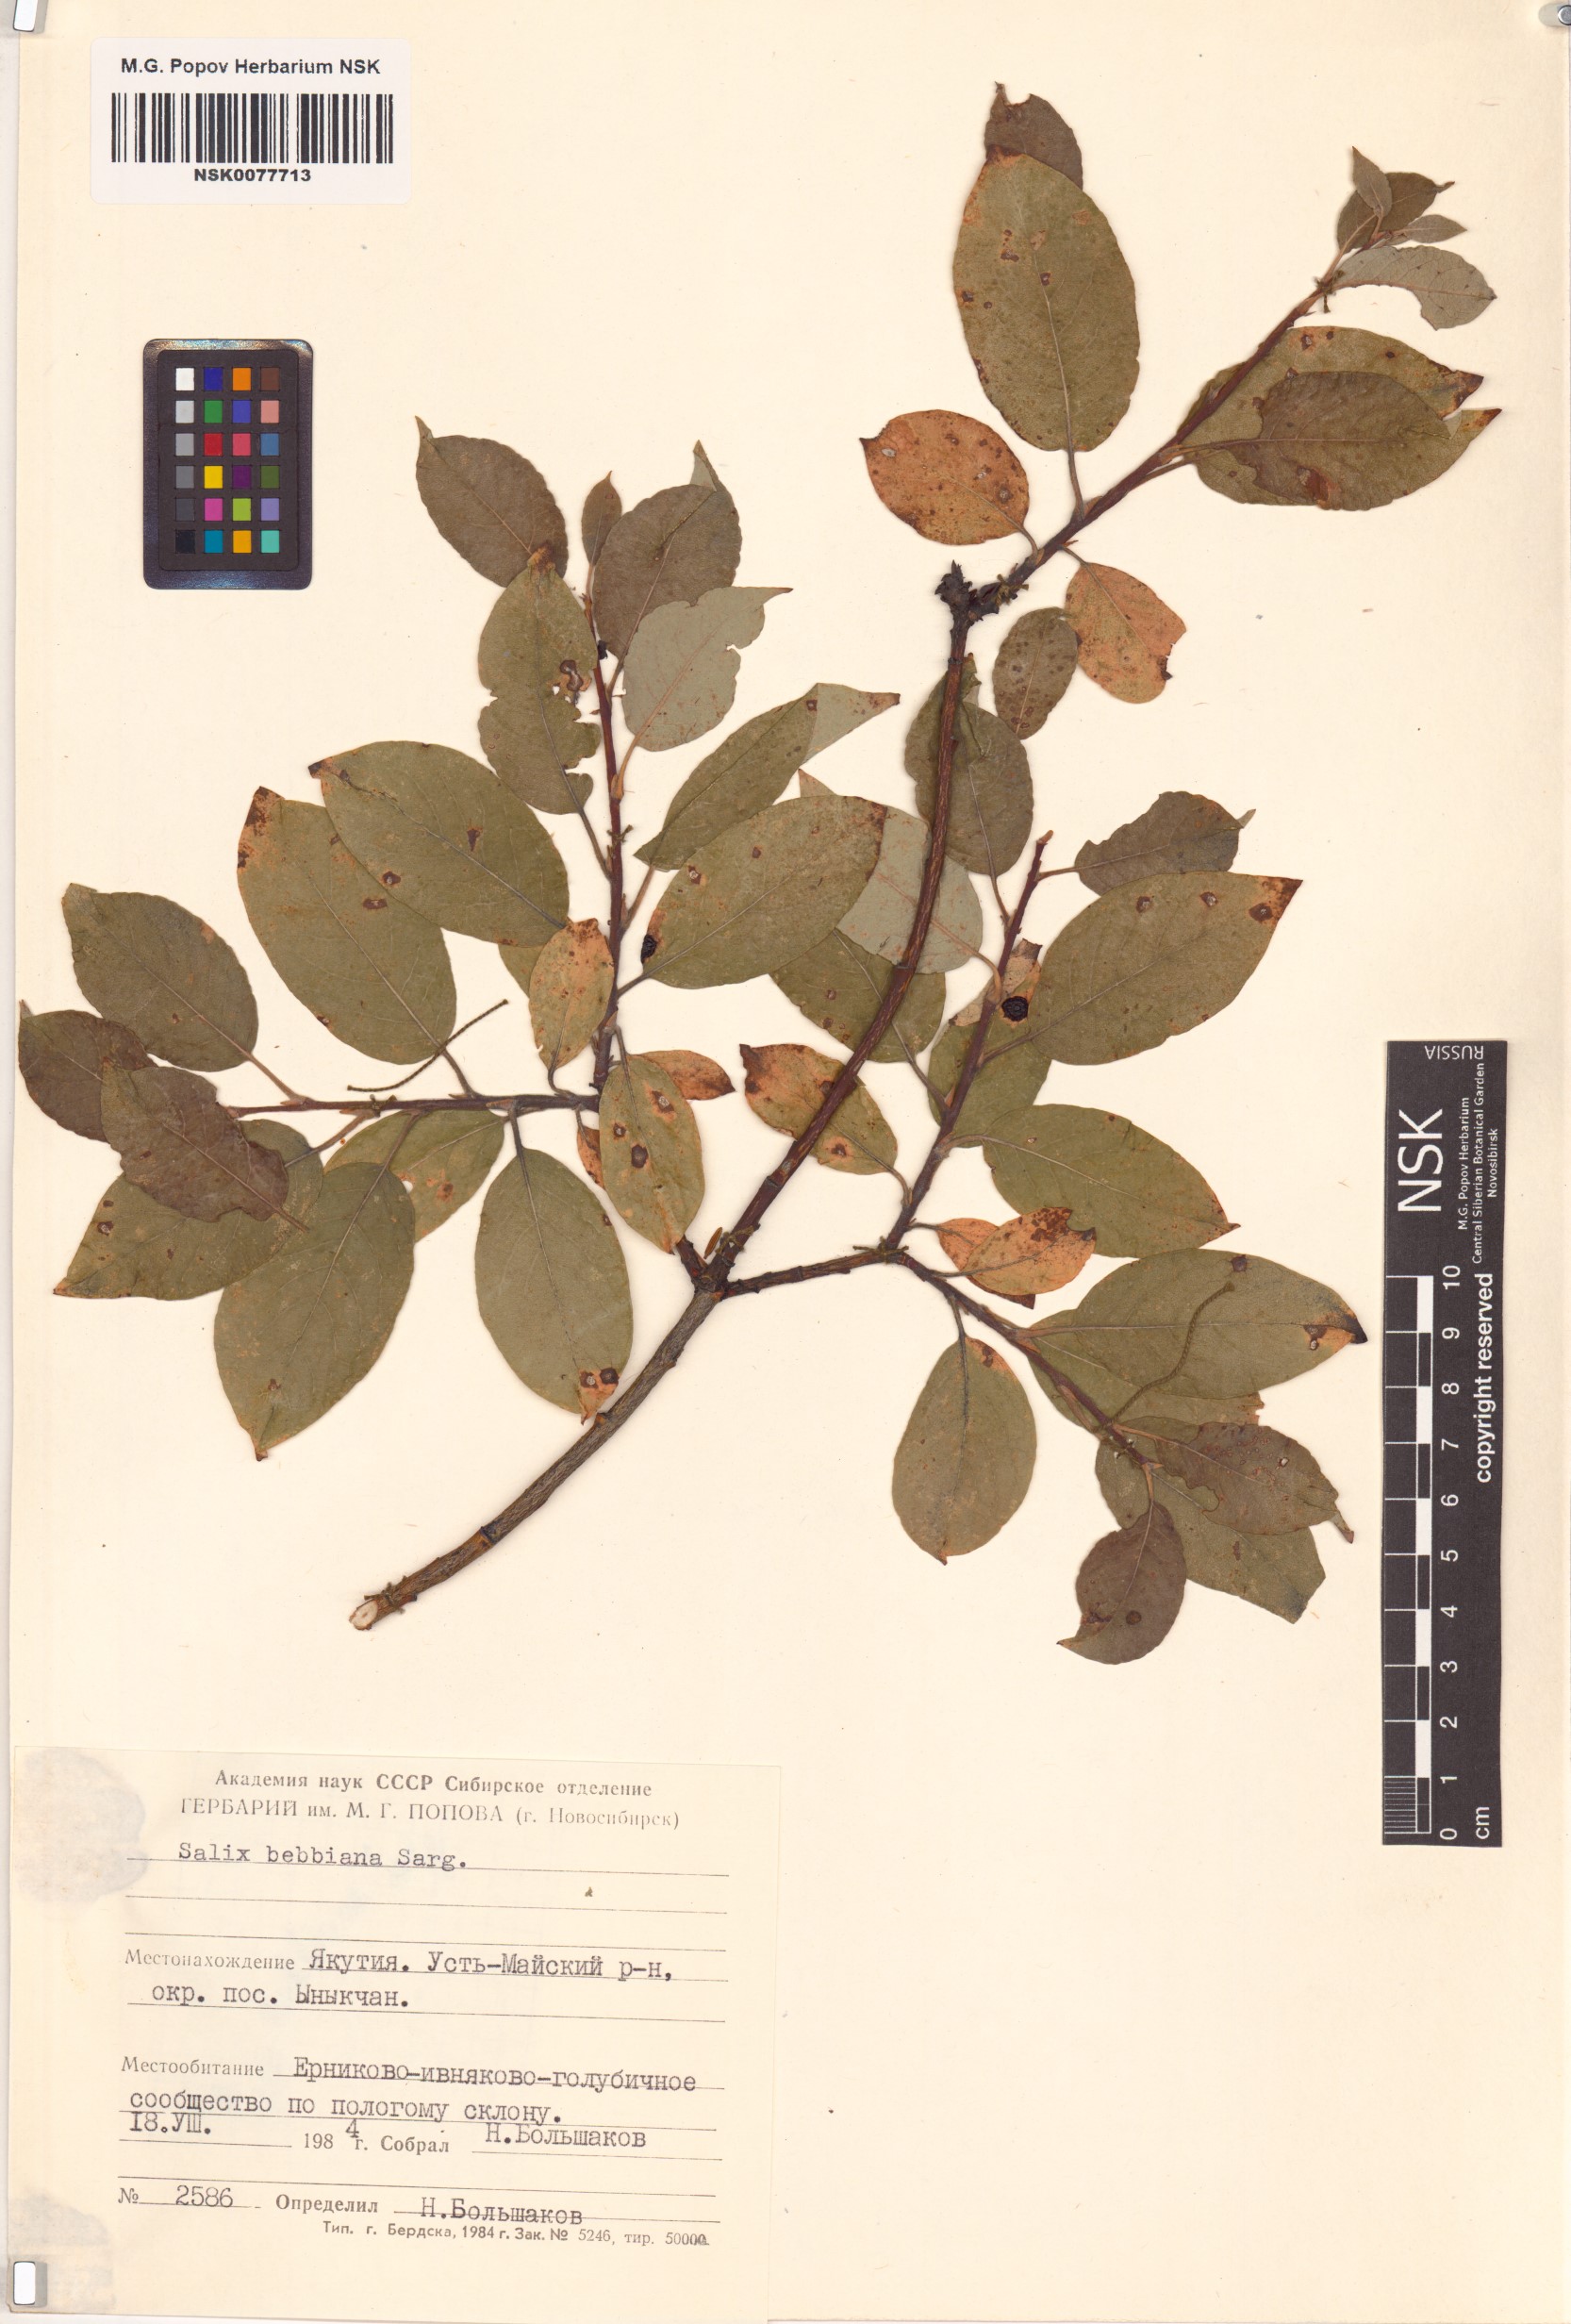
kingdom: Plantae
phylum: Tracheophyta
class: Magnoliopsida
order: Malpighiales
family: Salicaceae
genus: Salix
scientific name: Salix bebbiana
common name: Bebb's willow
